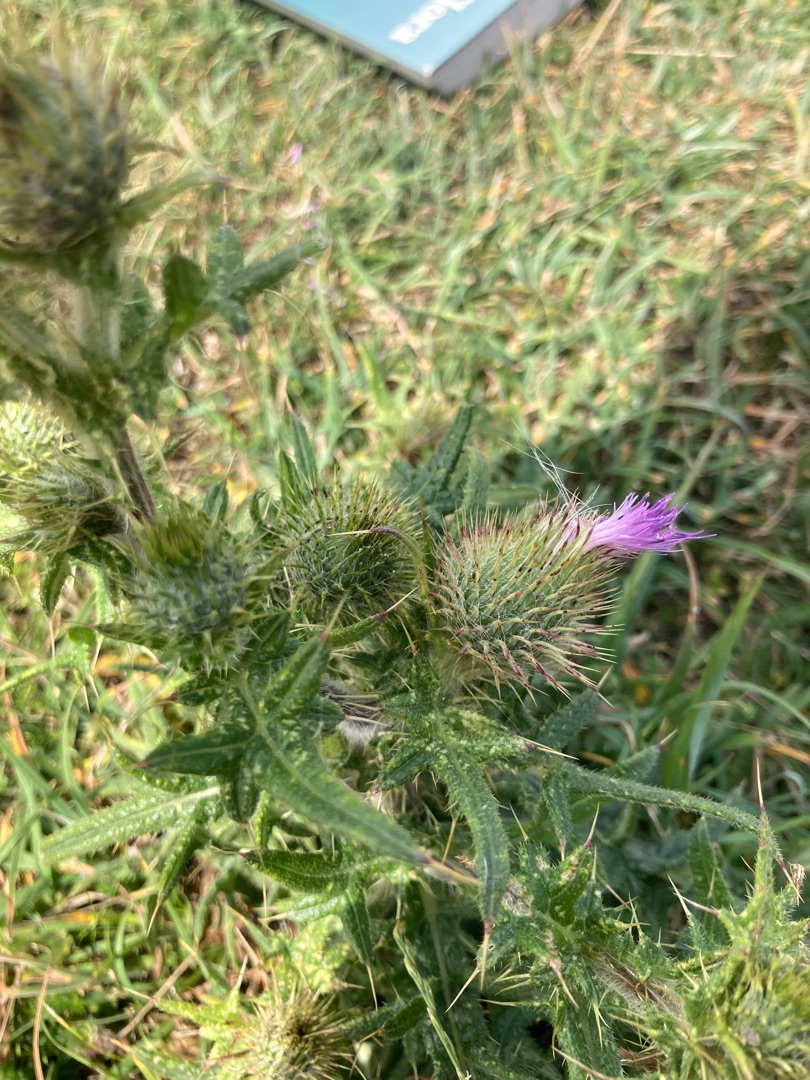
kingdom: Plantae
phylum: Tracheophyta
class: Magnoliopsida
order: Asterales
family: Asteraceae
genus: Cirsium
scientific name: Cirsium vulgare
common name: Horse-tidsel
